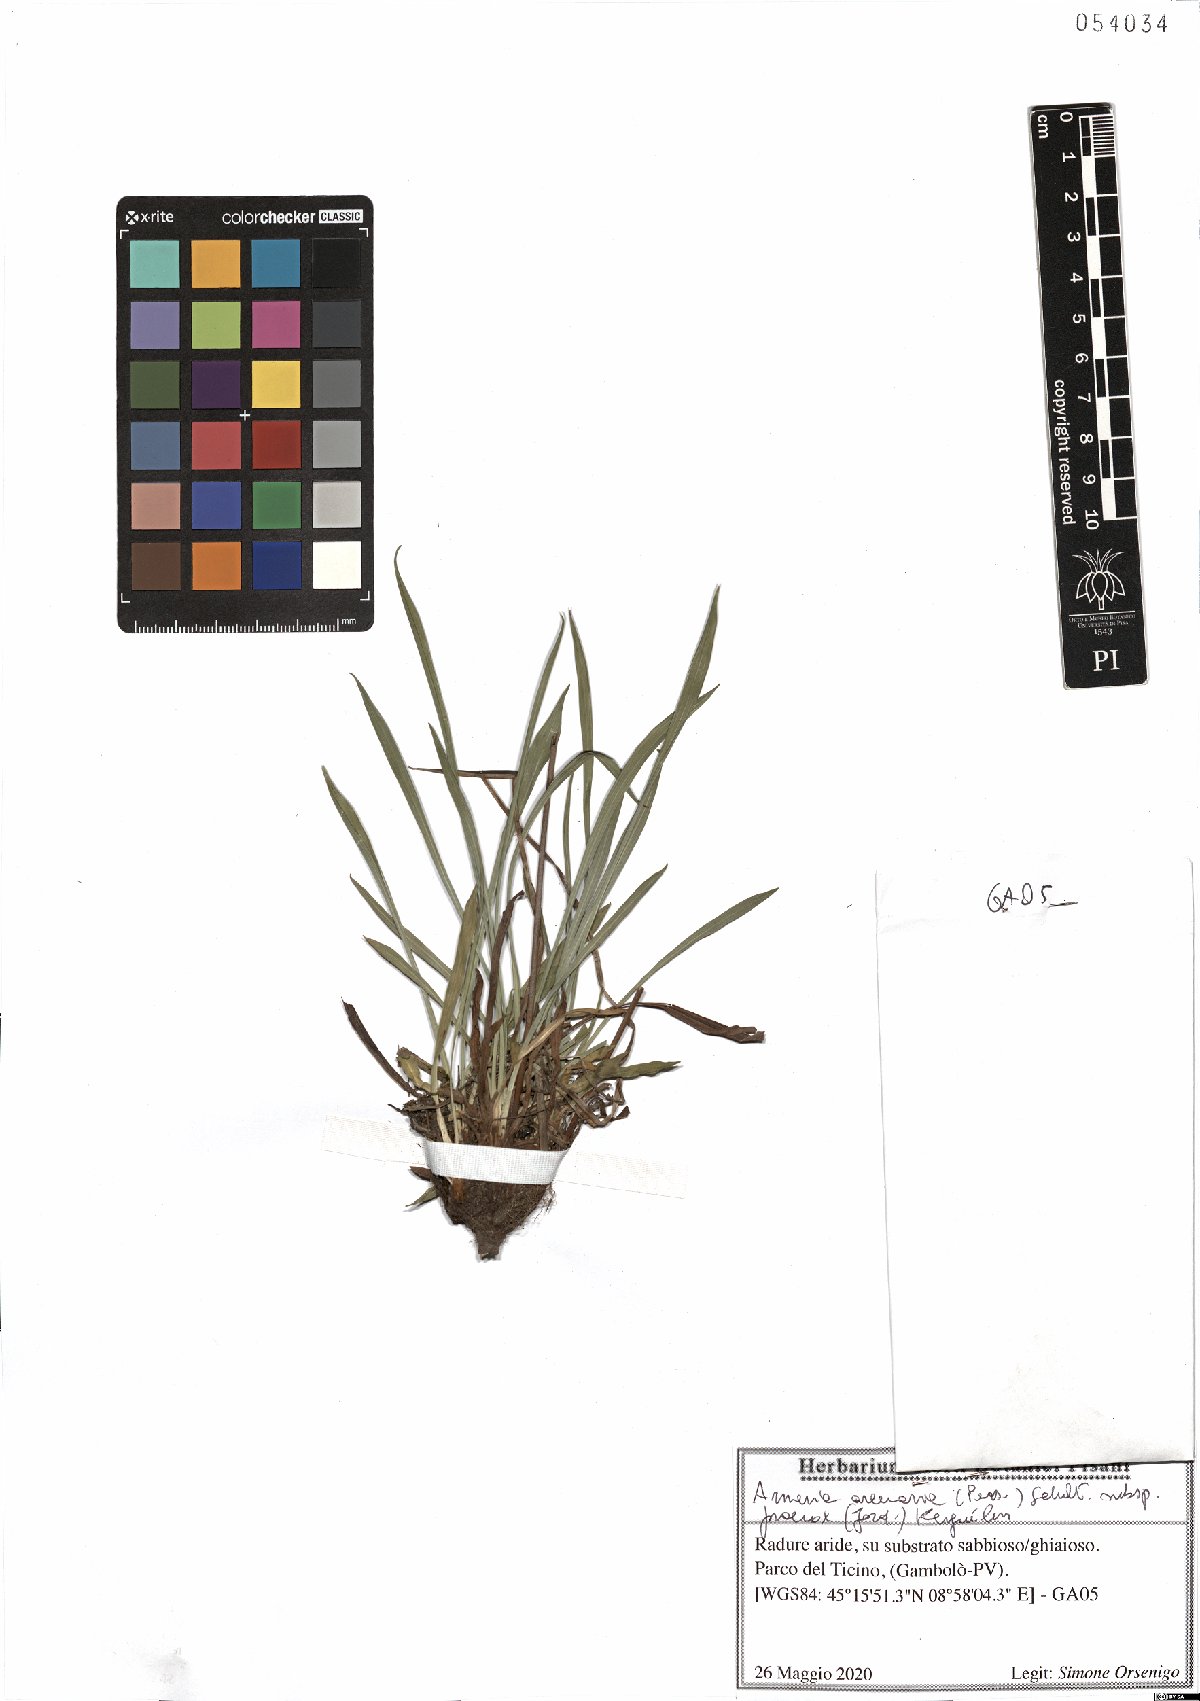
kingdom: Plantae
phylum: Tracheophyta
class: Magnoliopsida
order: Caryophyllales
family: Plumbaginaceae
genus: Armeria
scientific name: Armeria arenaria
